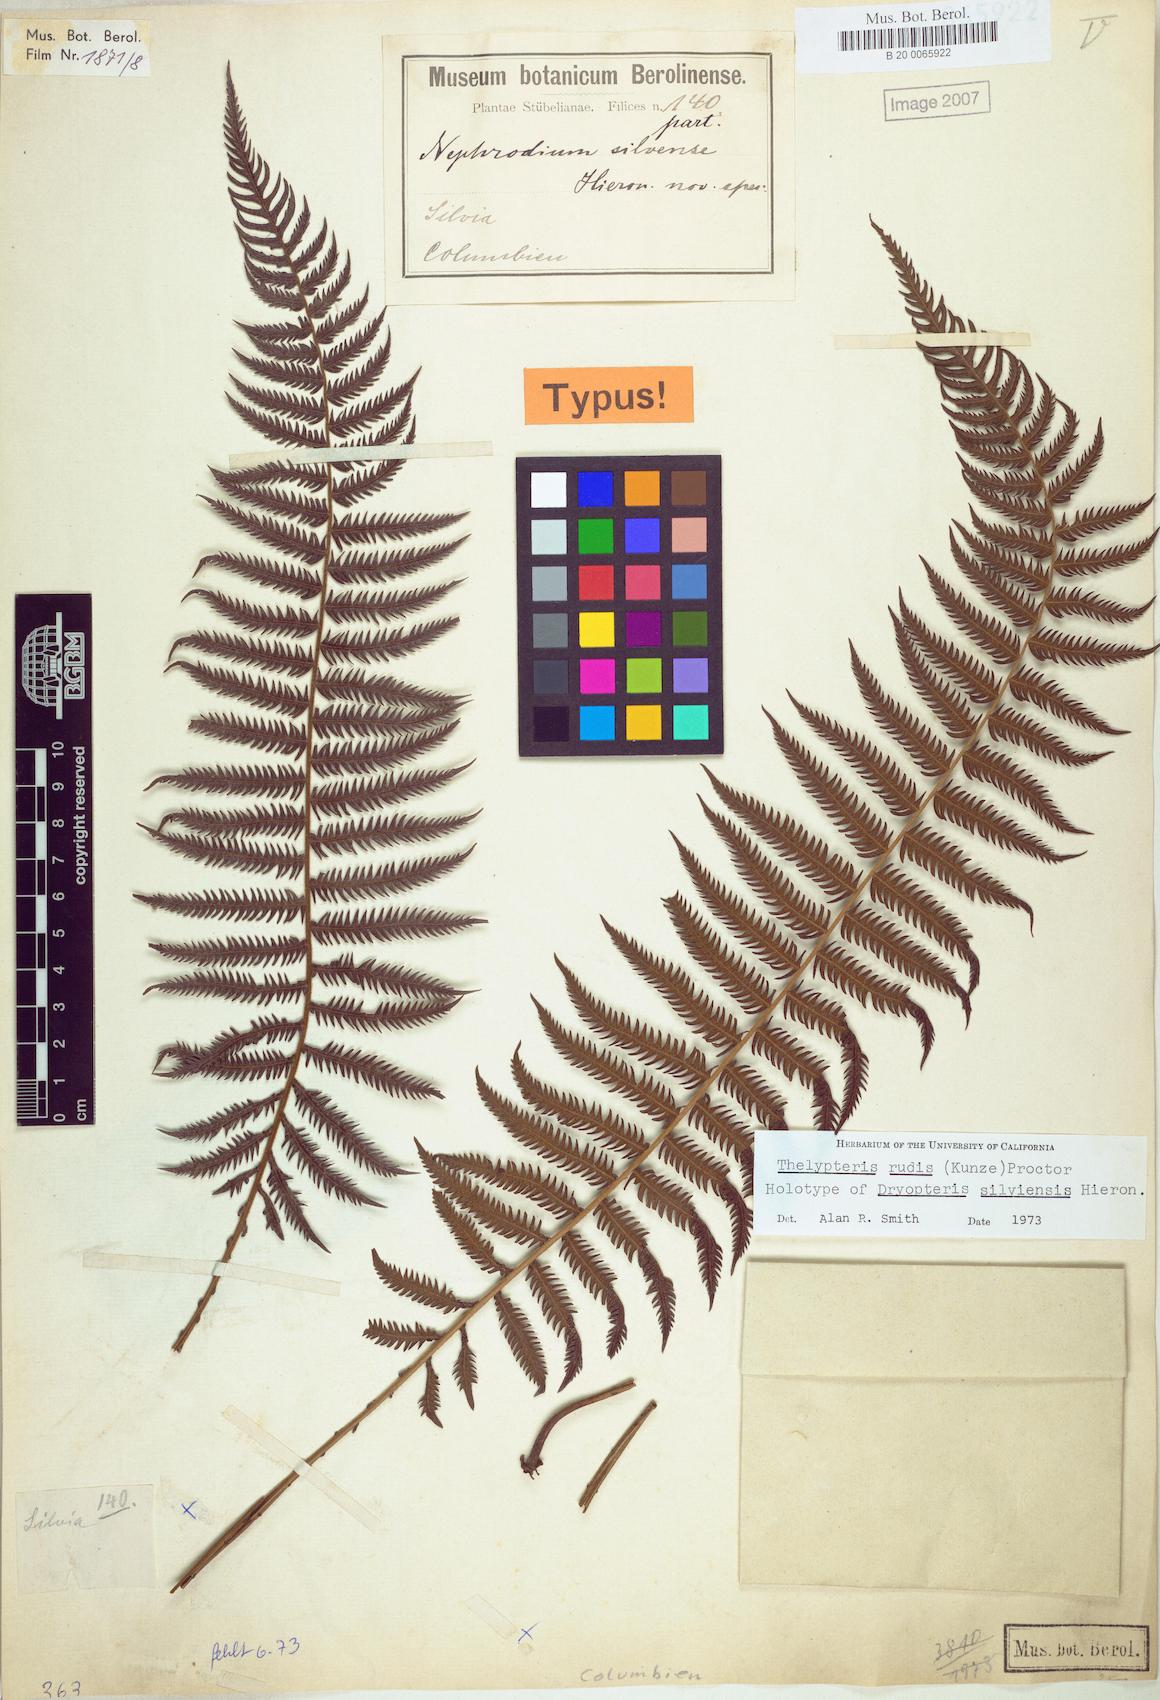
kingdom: Plantae
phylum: Tracheophyta
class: Polypodiopsida
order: Polypodiales
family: Thelypteridaceae
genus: Amauropelta
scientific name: Amauropelta rudis
